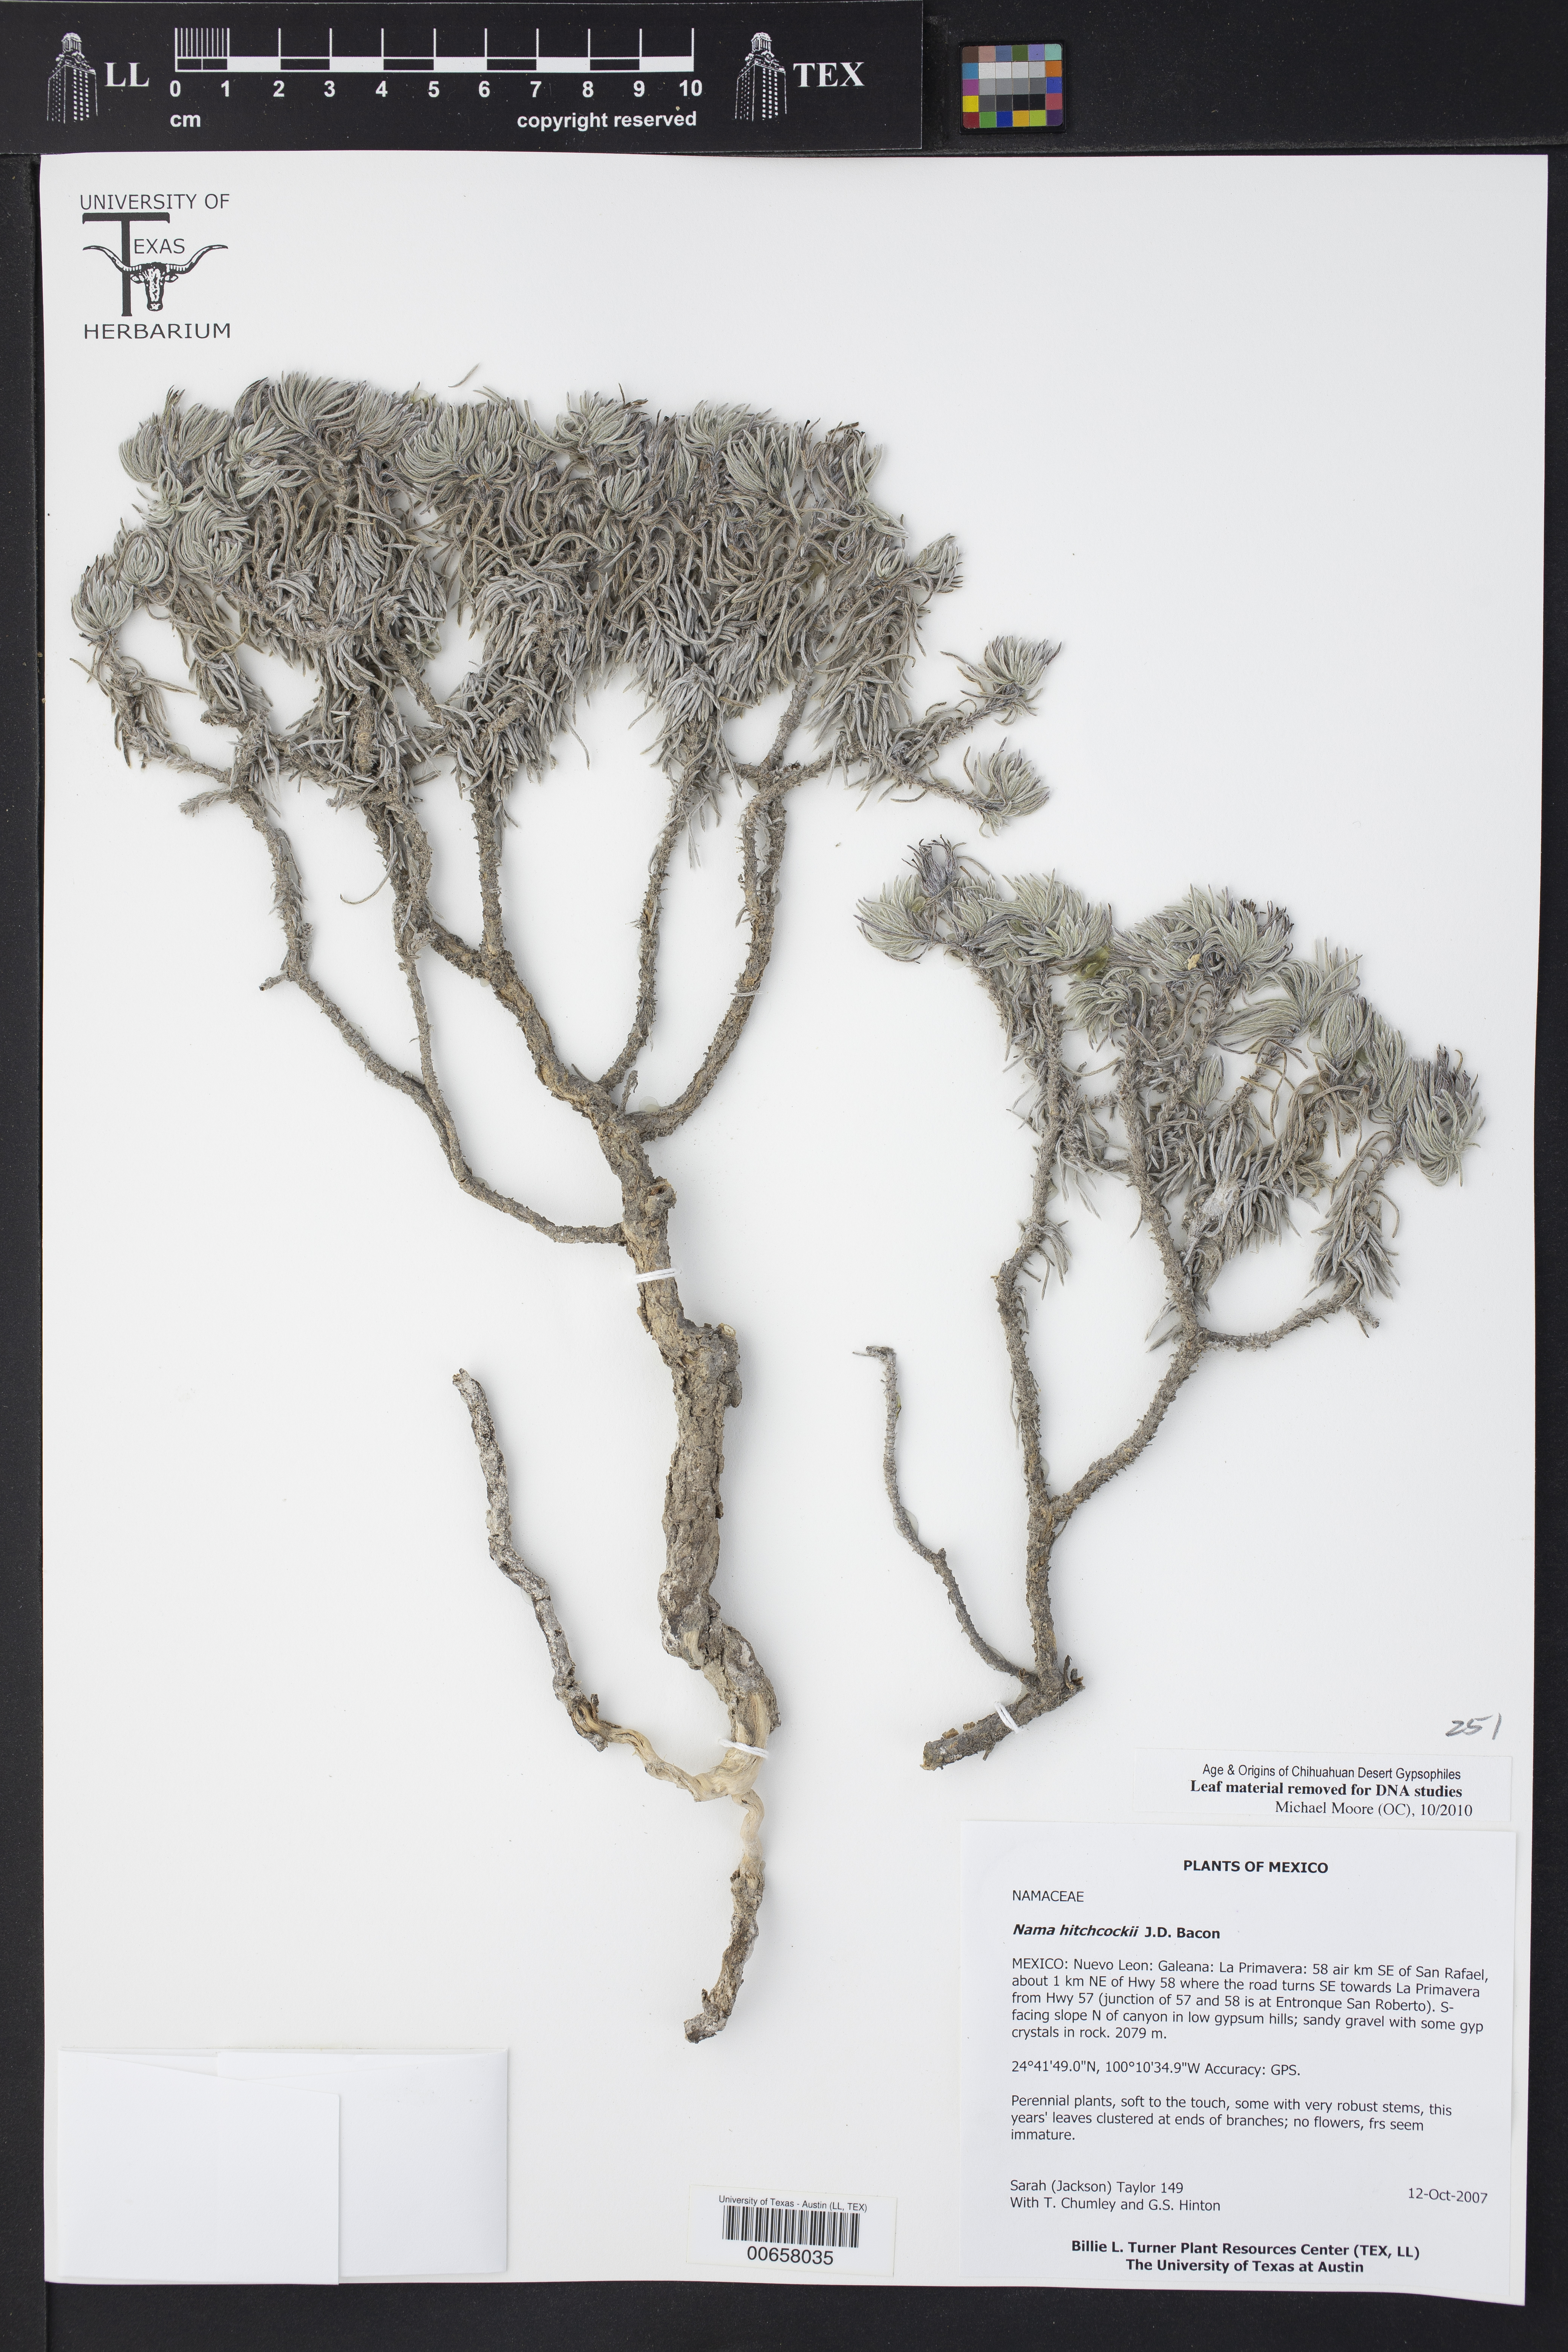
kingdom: Plantae
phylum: Tracheophyta
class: Magnoliopsida
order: Boraginales
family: Namaceae
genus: Nama
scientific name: Nama hitchcockii
